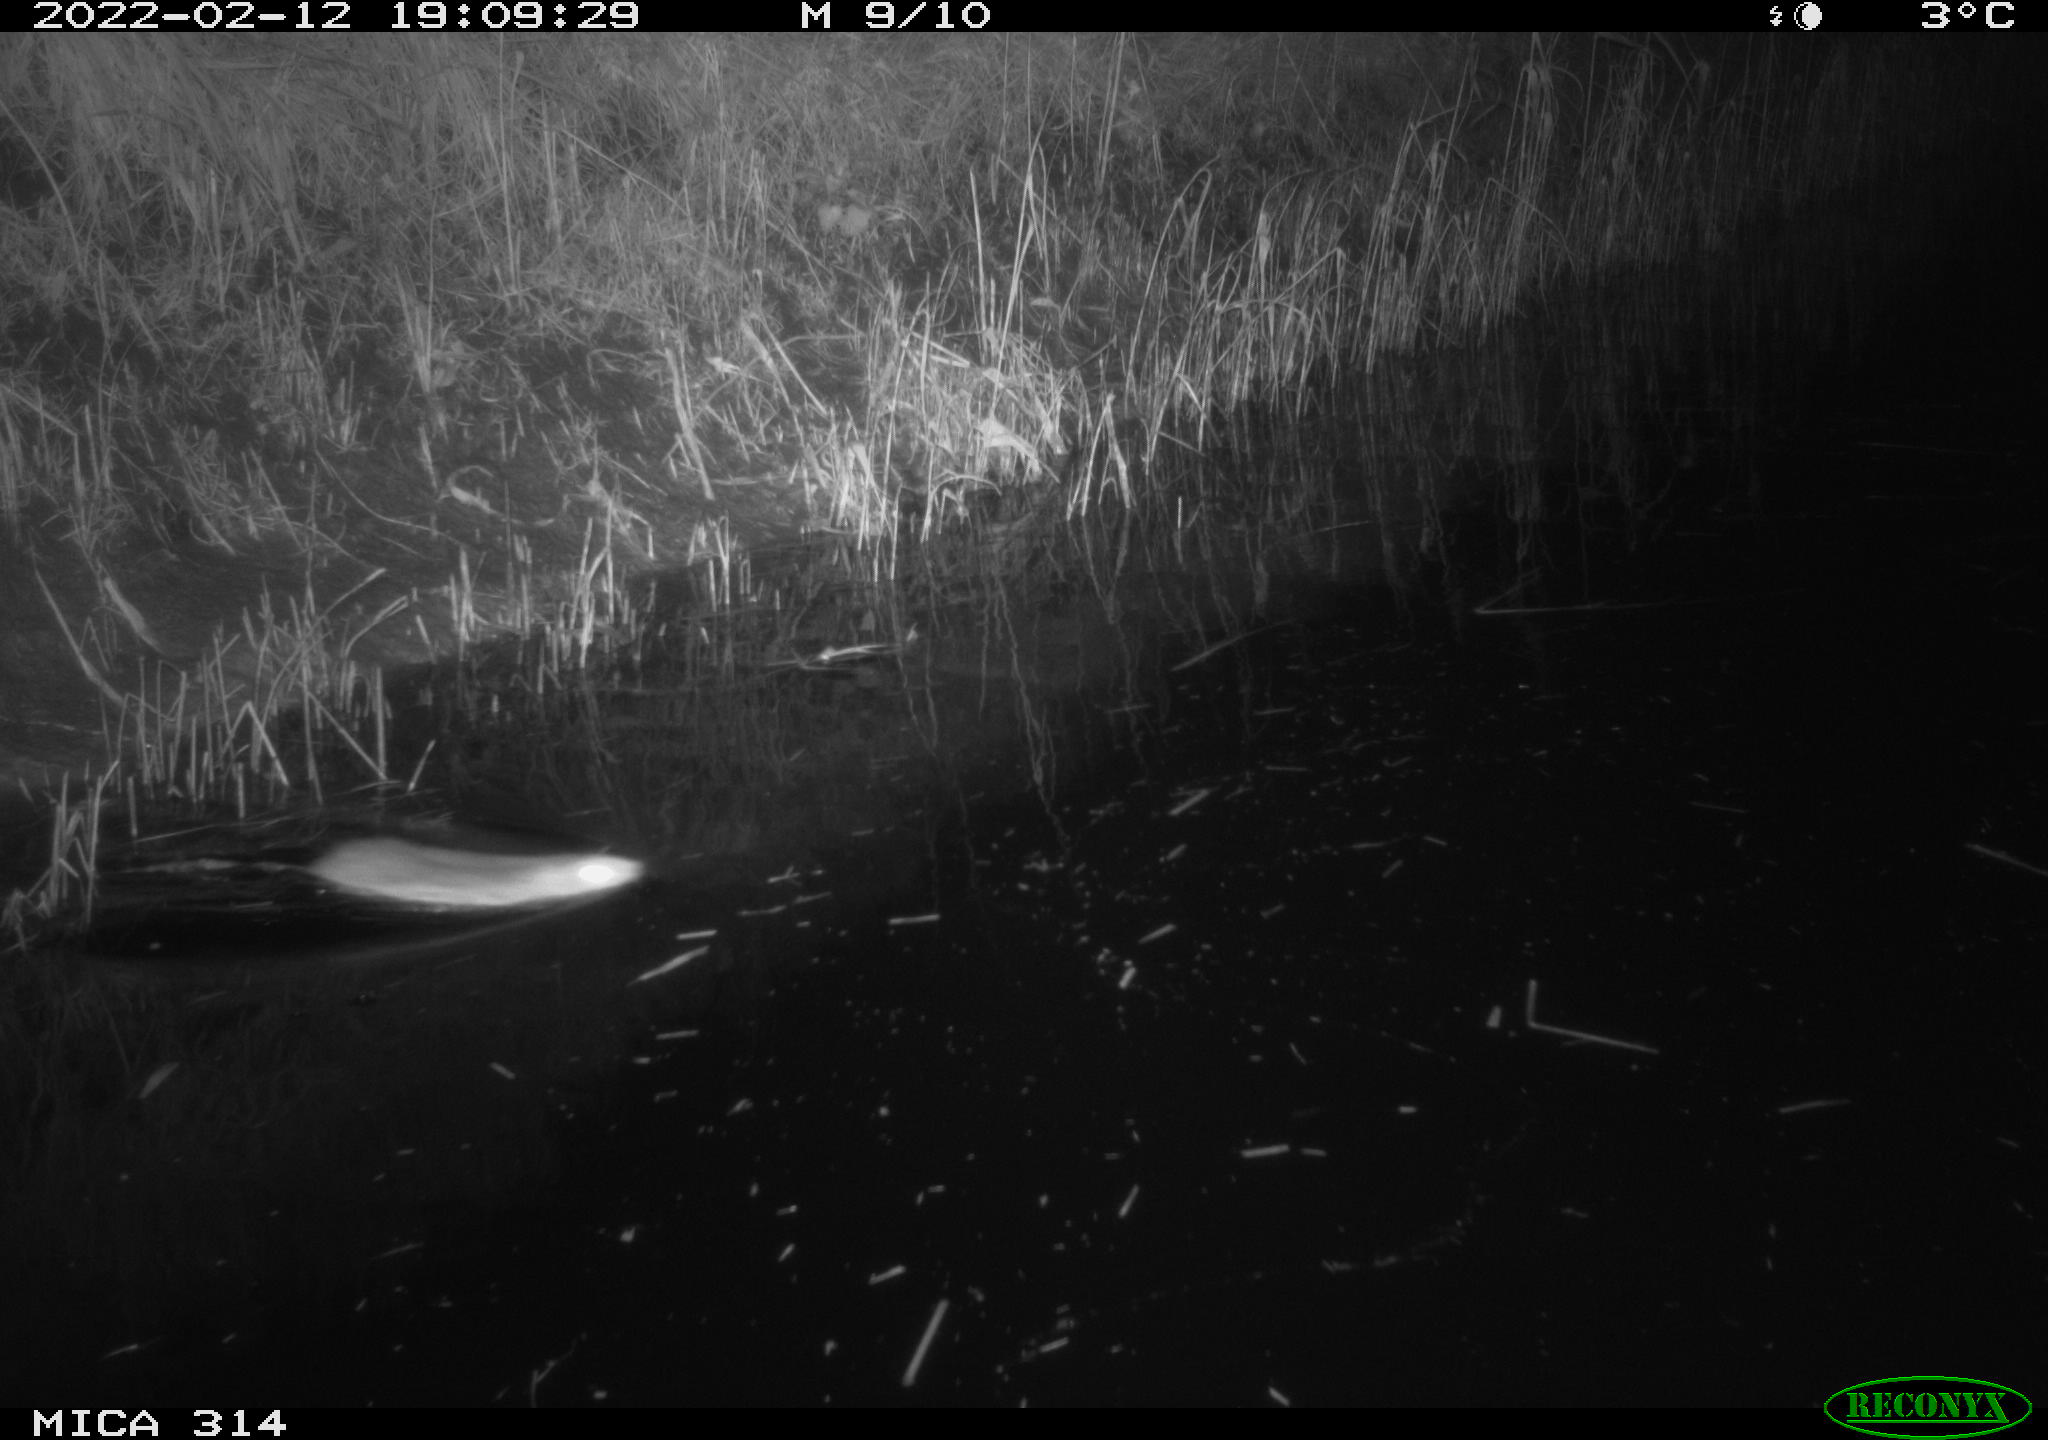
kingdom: Animalia
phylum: Chordata
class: Mammalia
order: Rodentia
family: Muridae
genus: Rattus
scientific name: Rattus norvegicus
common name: Brown rat
